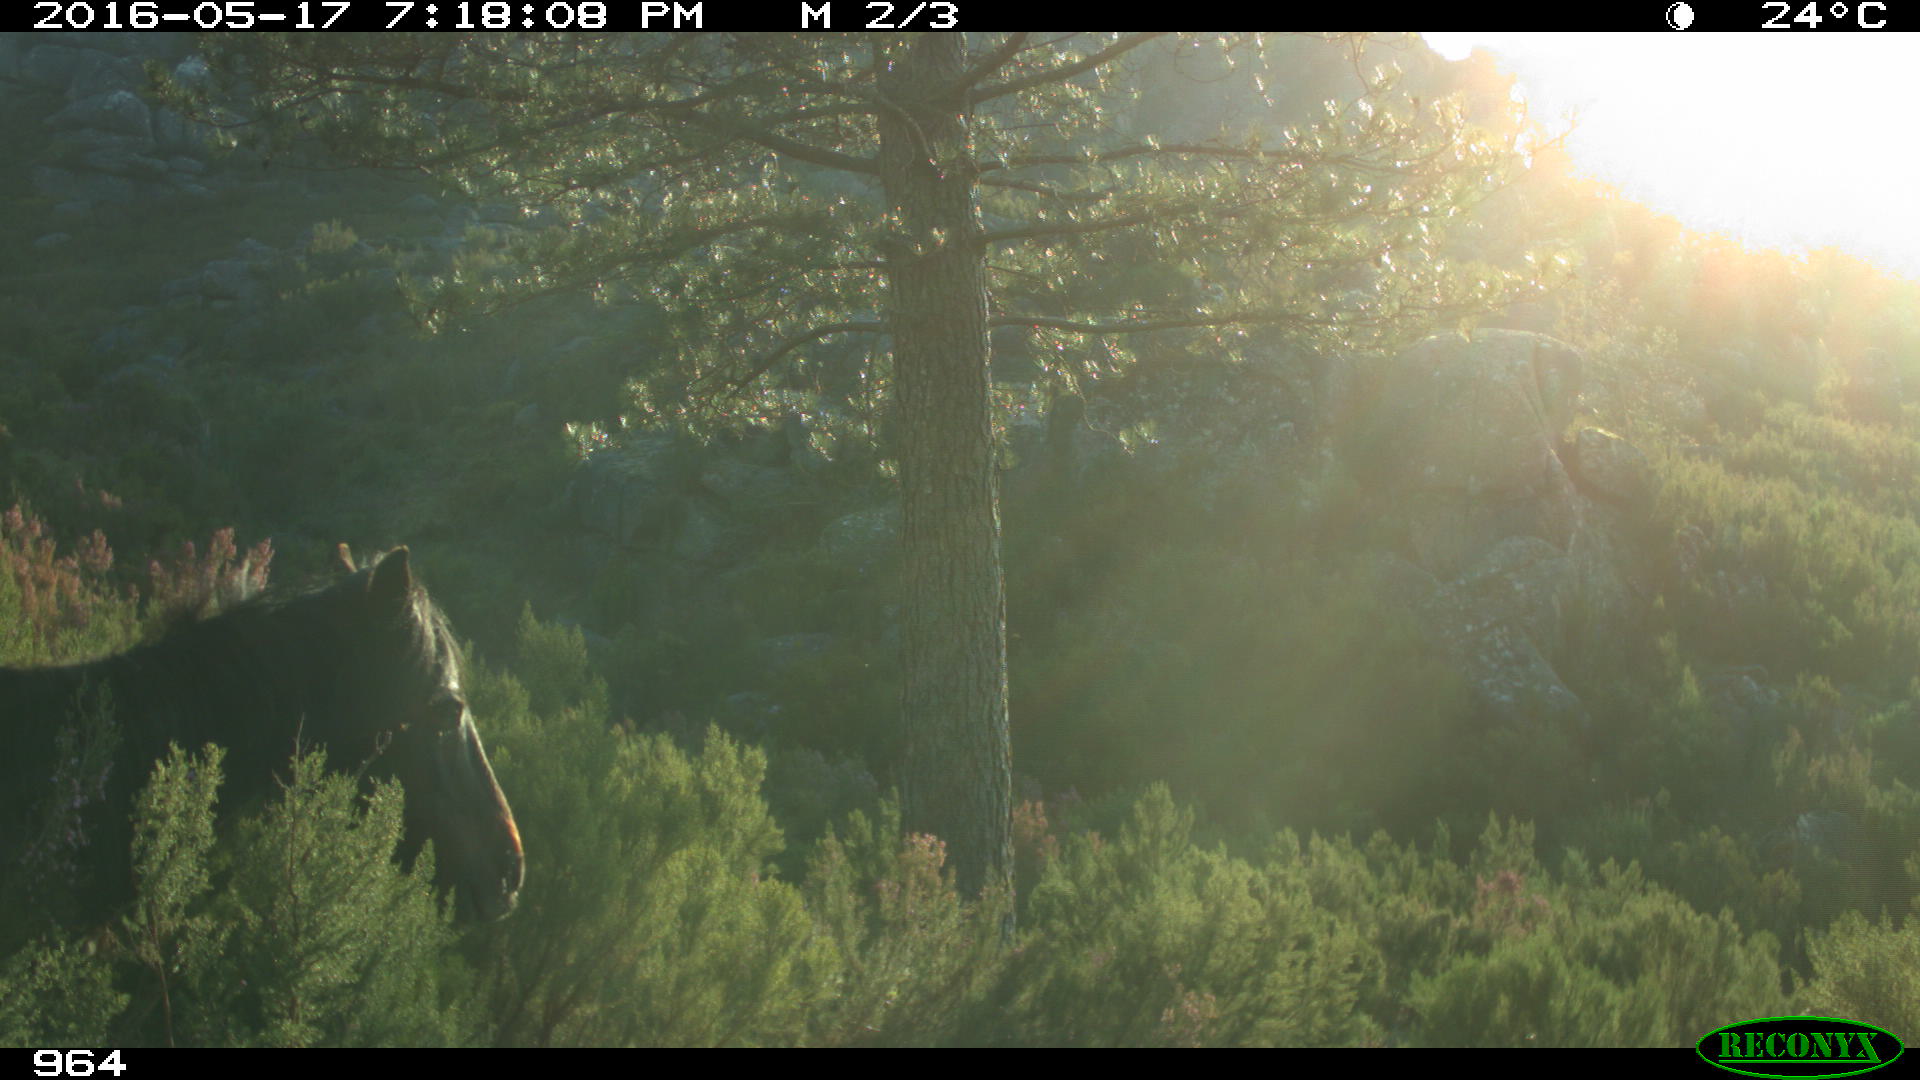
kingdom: Animalia
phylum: Chordata
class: Mammalia
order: Perissodactyla
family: Equidae
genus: Equus
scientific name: Equus caballus
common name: Horse
